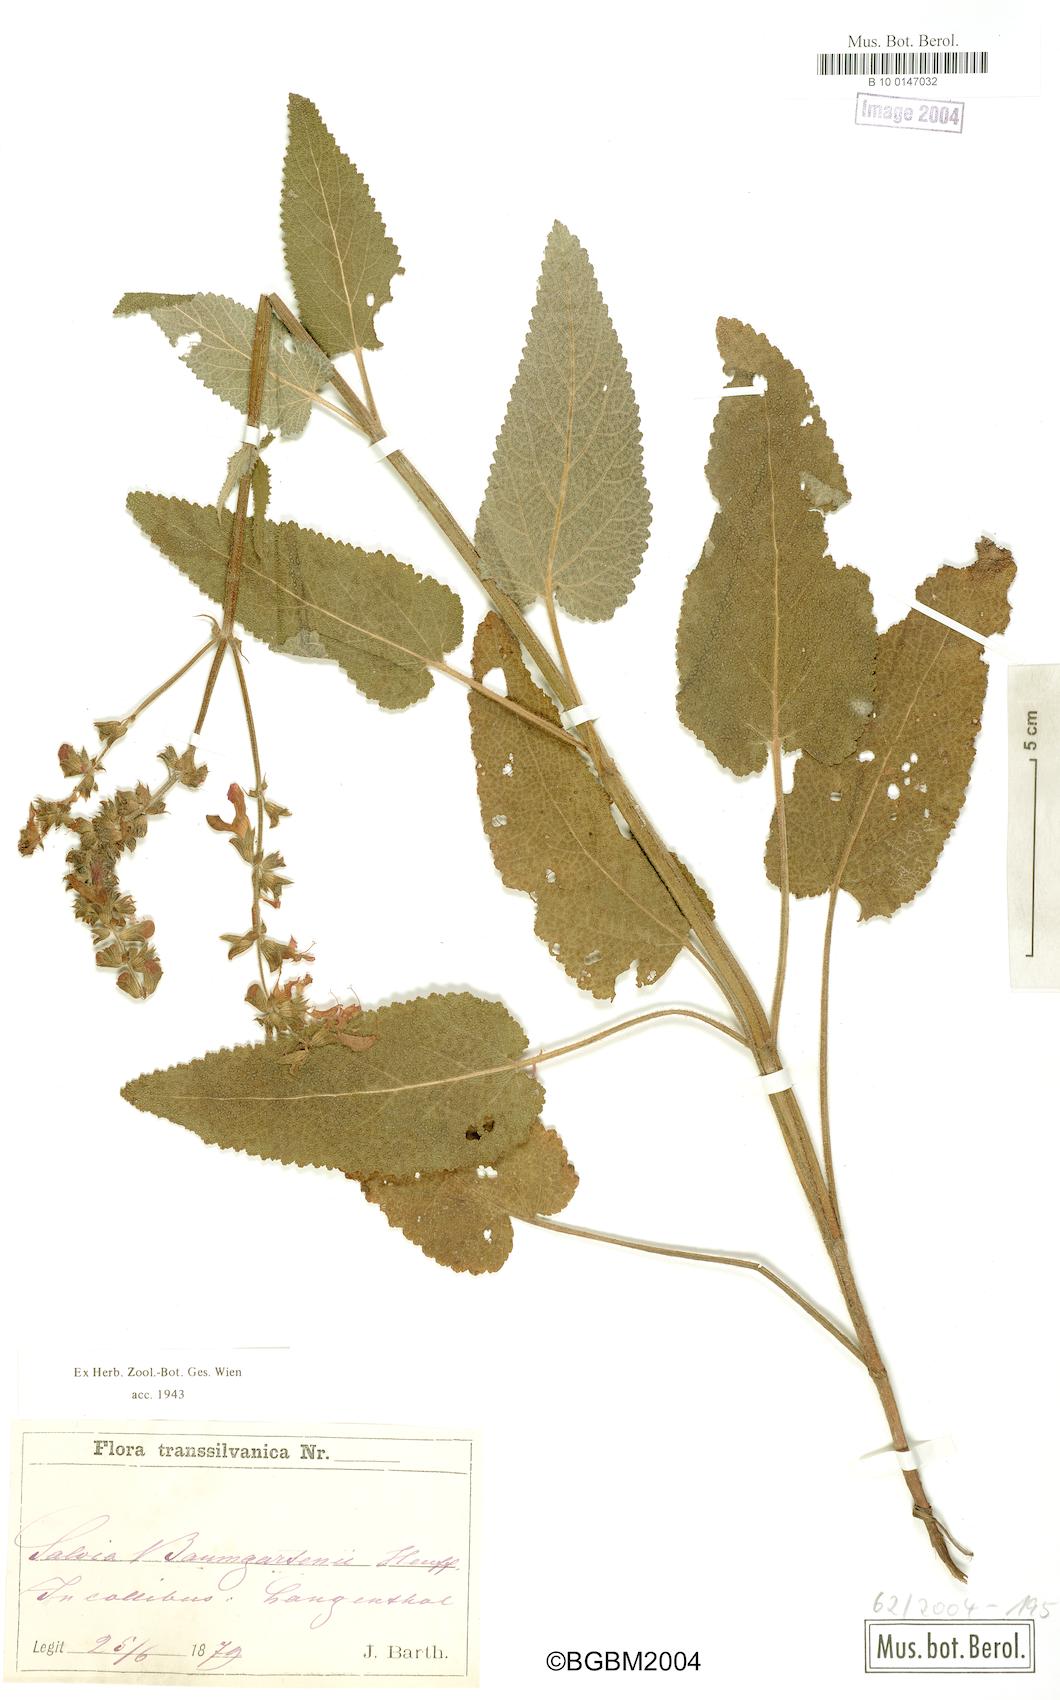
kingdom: Plantae
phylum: Tracheophyta
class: Magnoliopsida
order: Lamiales
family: Lamiaceae
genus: Salvia
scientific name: Salvia transsylvanica
